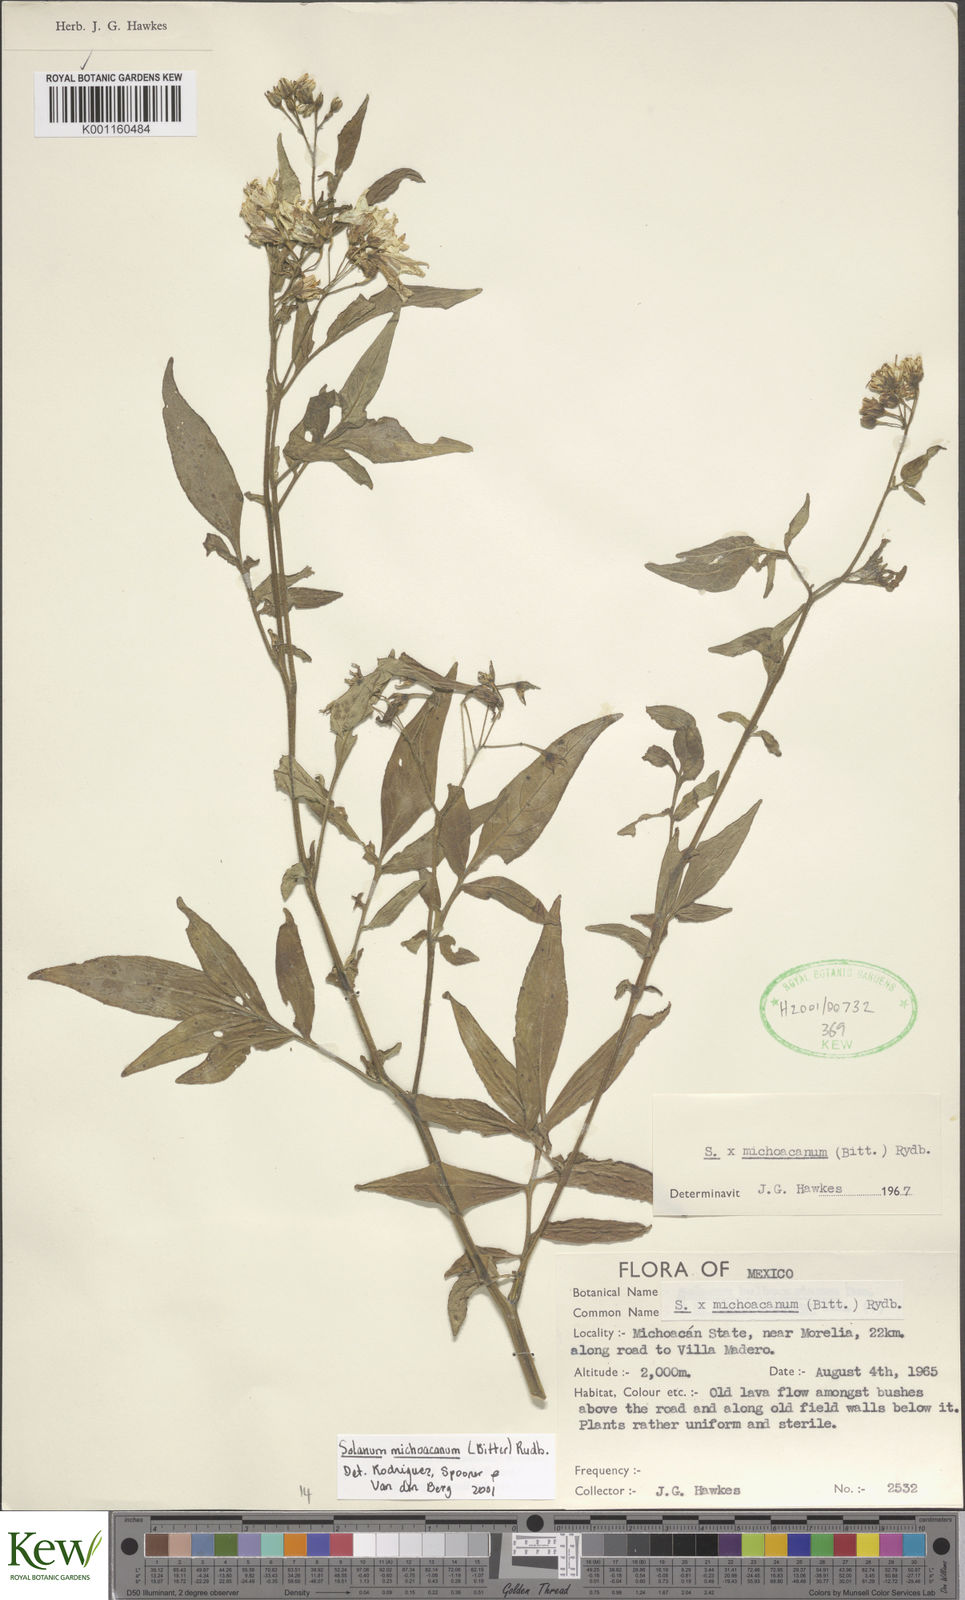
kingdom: Plantae
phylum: Tracheophyta
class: Magnoliopsida
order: Solanales
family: Solanaceae
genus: Solanum
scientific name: Solanum bulbocastanum
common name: Ornamental nightshade
